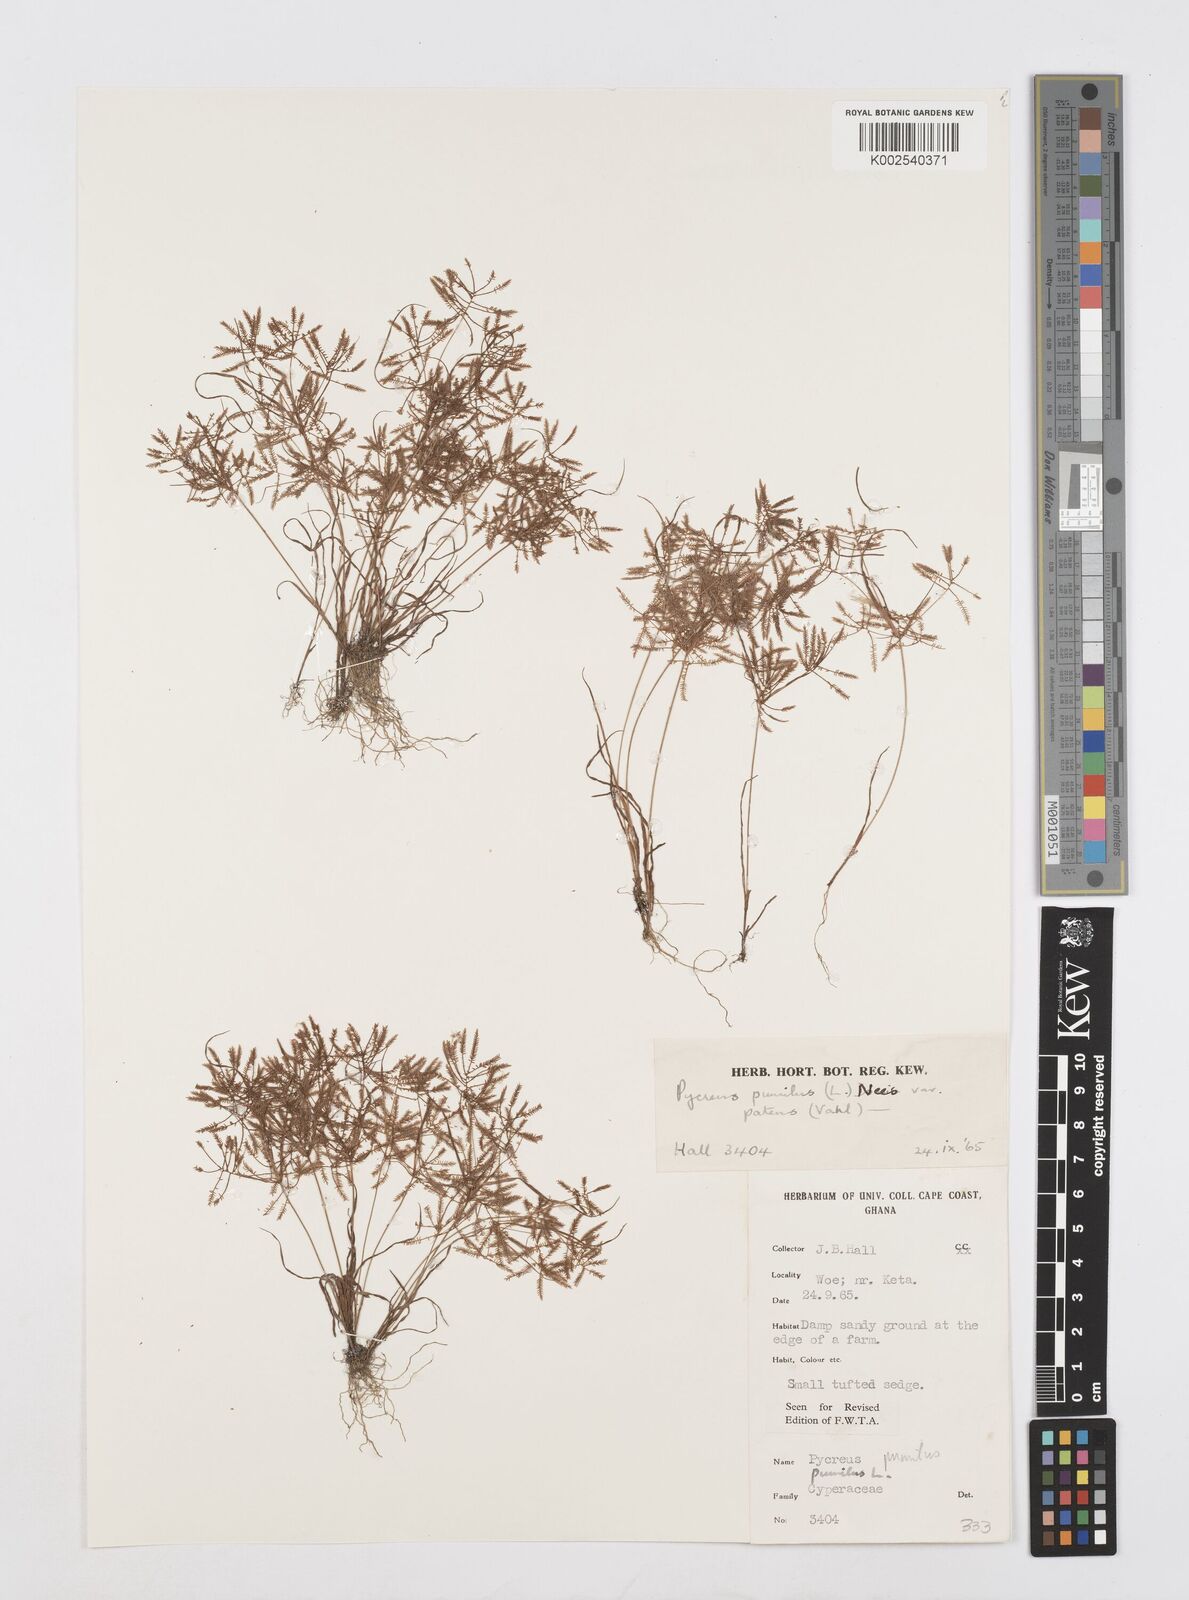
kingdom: Plantae
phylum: Tracheophyta
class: Liliopsida
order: Poales
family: Cyperaceae
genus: Cyperus
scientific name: Cyperus pumilus
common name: Low flatsedge
